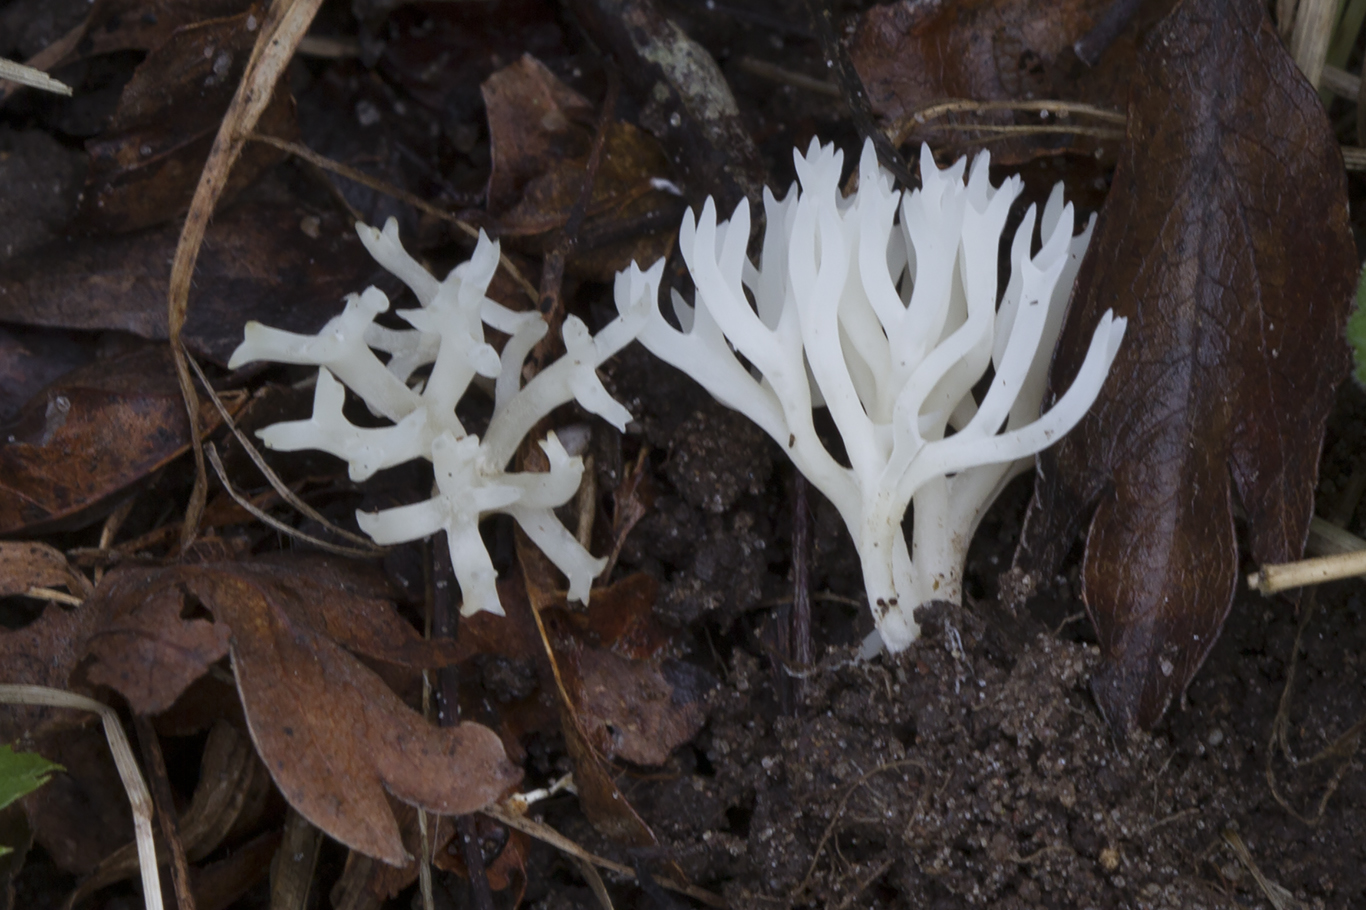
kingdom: Fungi
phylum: Basidiomycota
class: Agaricomycetes
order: Agaricales
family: Clavariaceae
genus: Ramariopsis
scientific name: Ramariopsis kunzei
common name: mangegrenet køllesvamp
